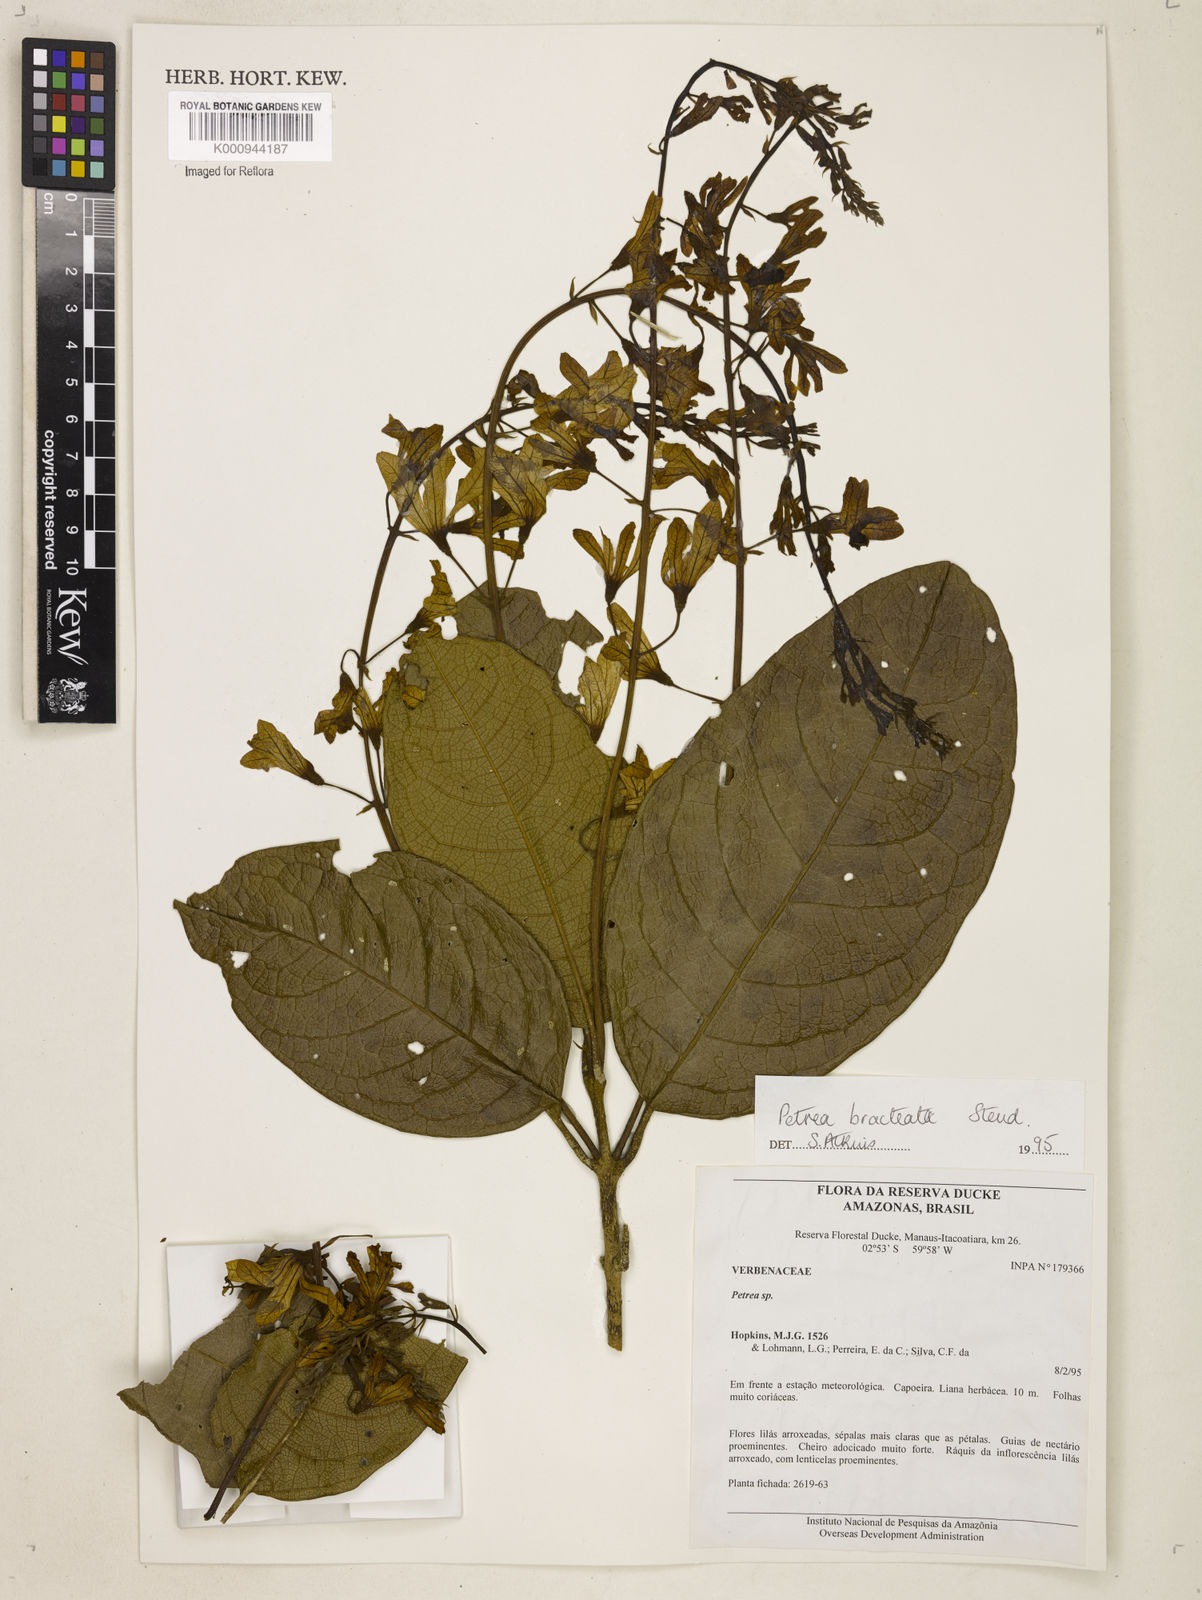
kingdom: Plantae
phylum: Tracheophyta
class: Magnoliopsida
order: Lamiales
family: Verbenaceae
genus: Petrea
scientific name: Petrea bracteata
